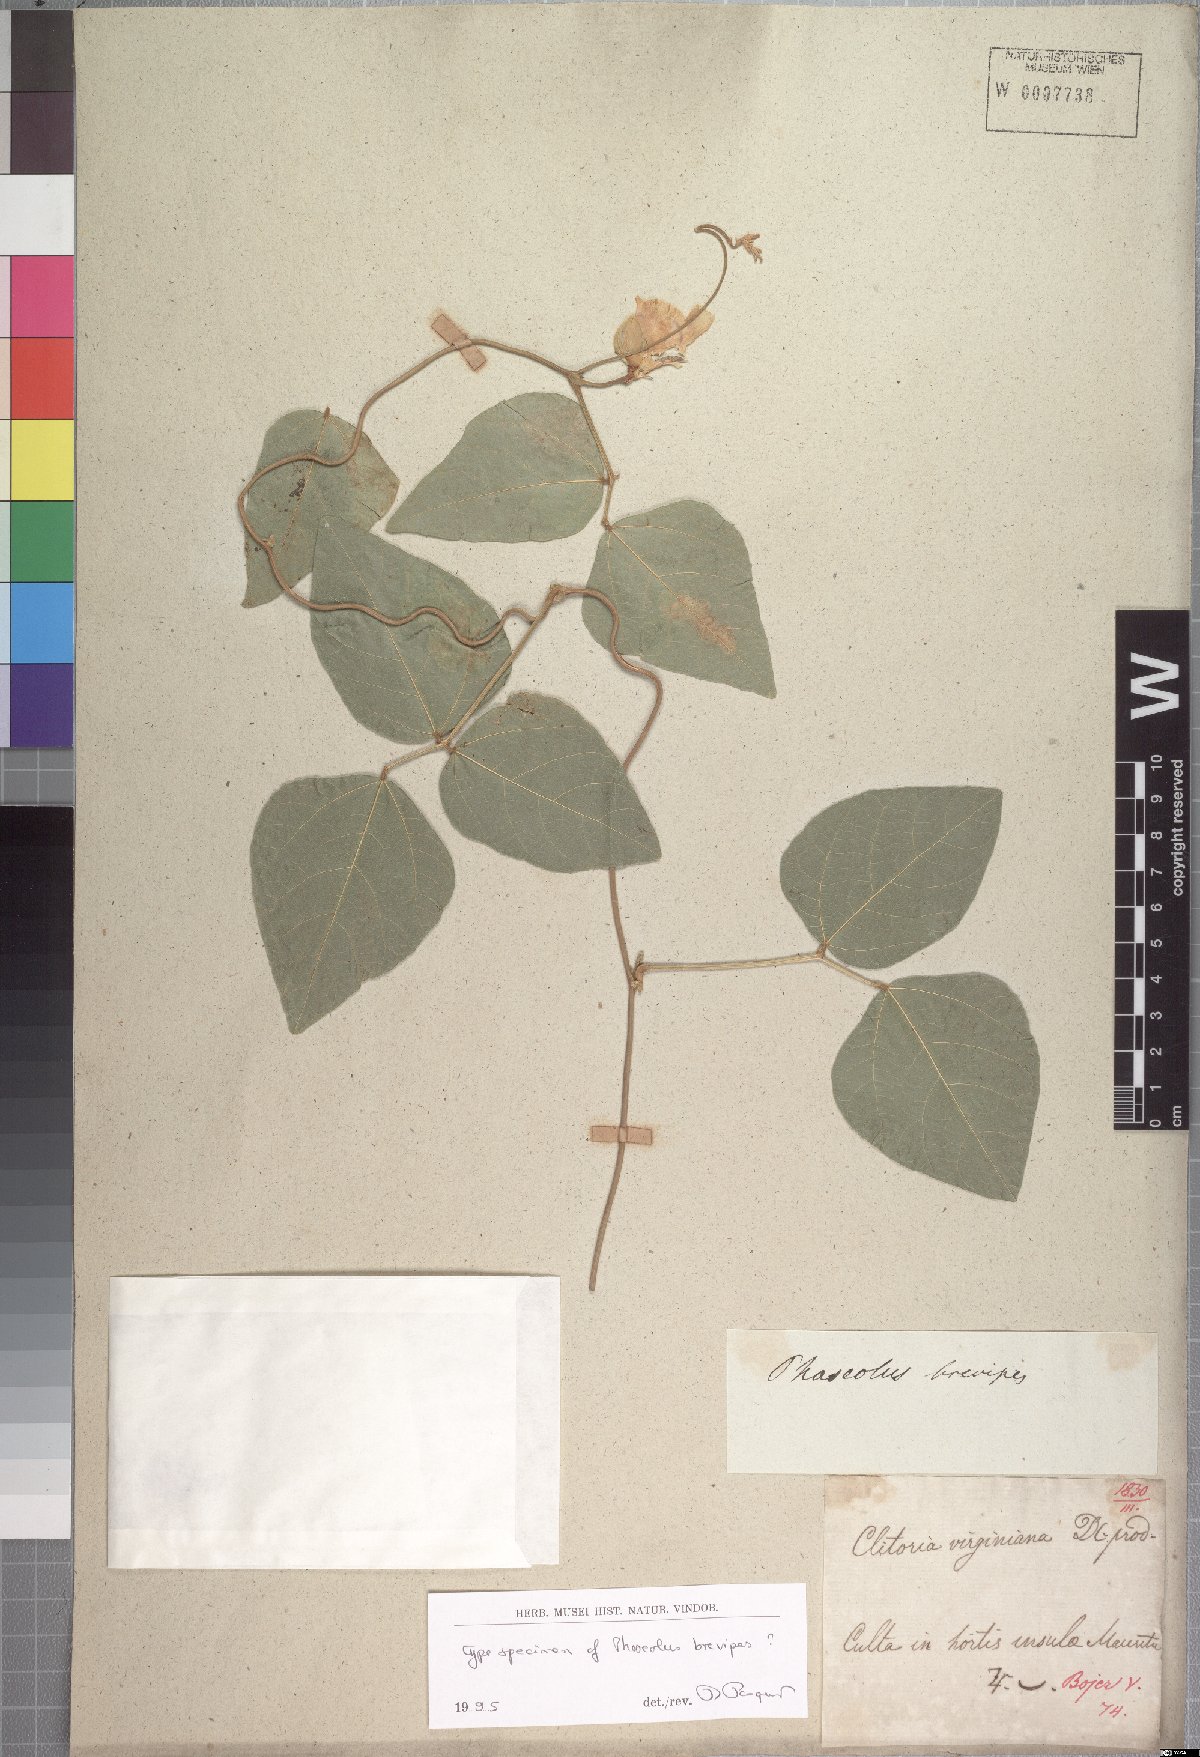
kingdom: Plantae
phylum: Tracheophyta
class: Magnoliopsida
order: Fabales
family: Fabaceae
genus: Leptospron
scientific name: Leptospron adenanthum
